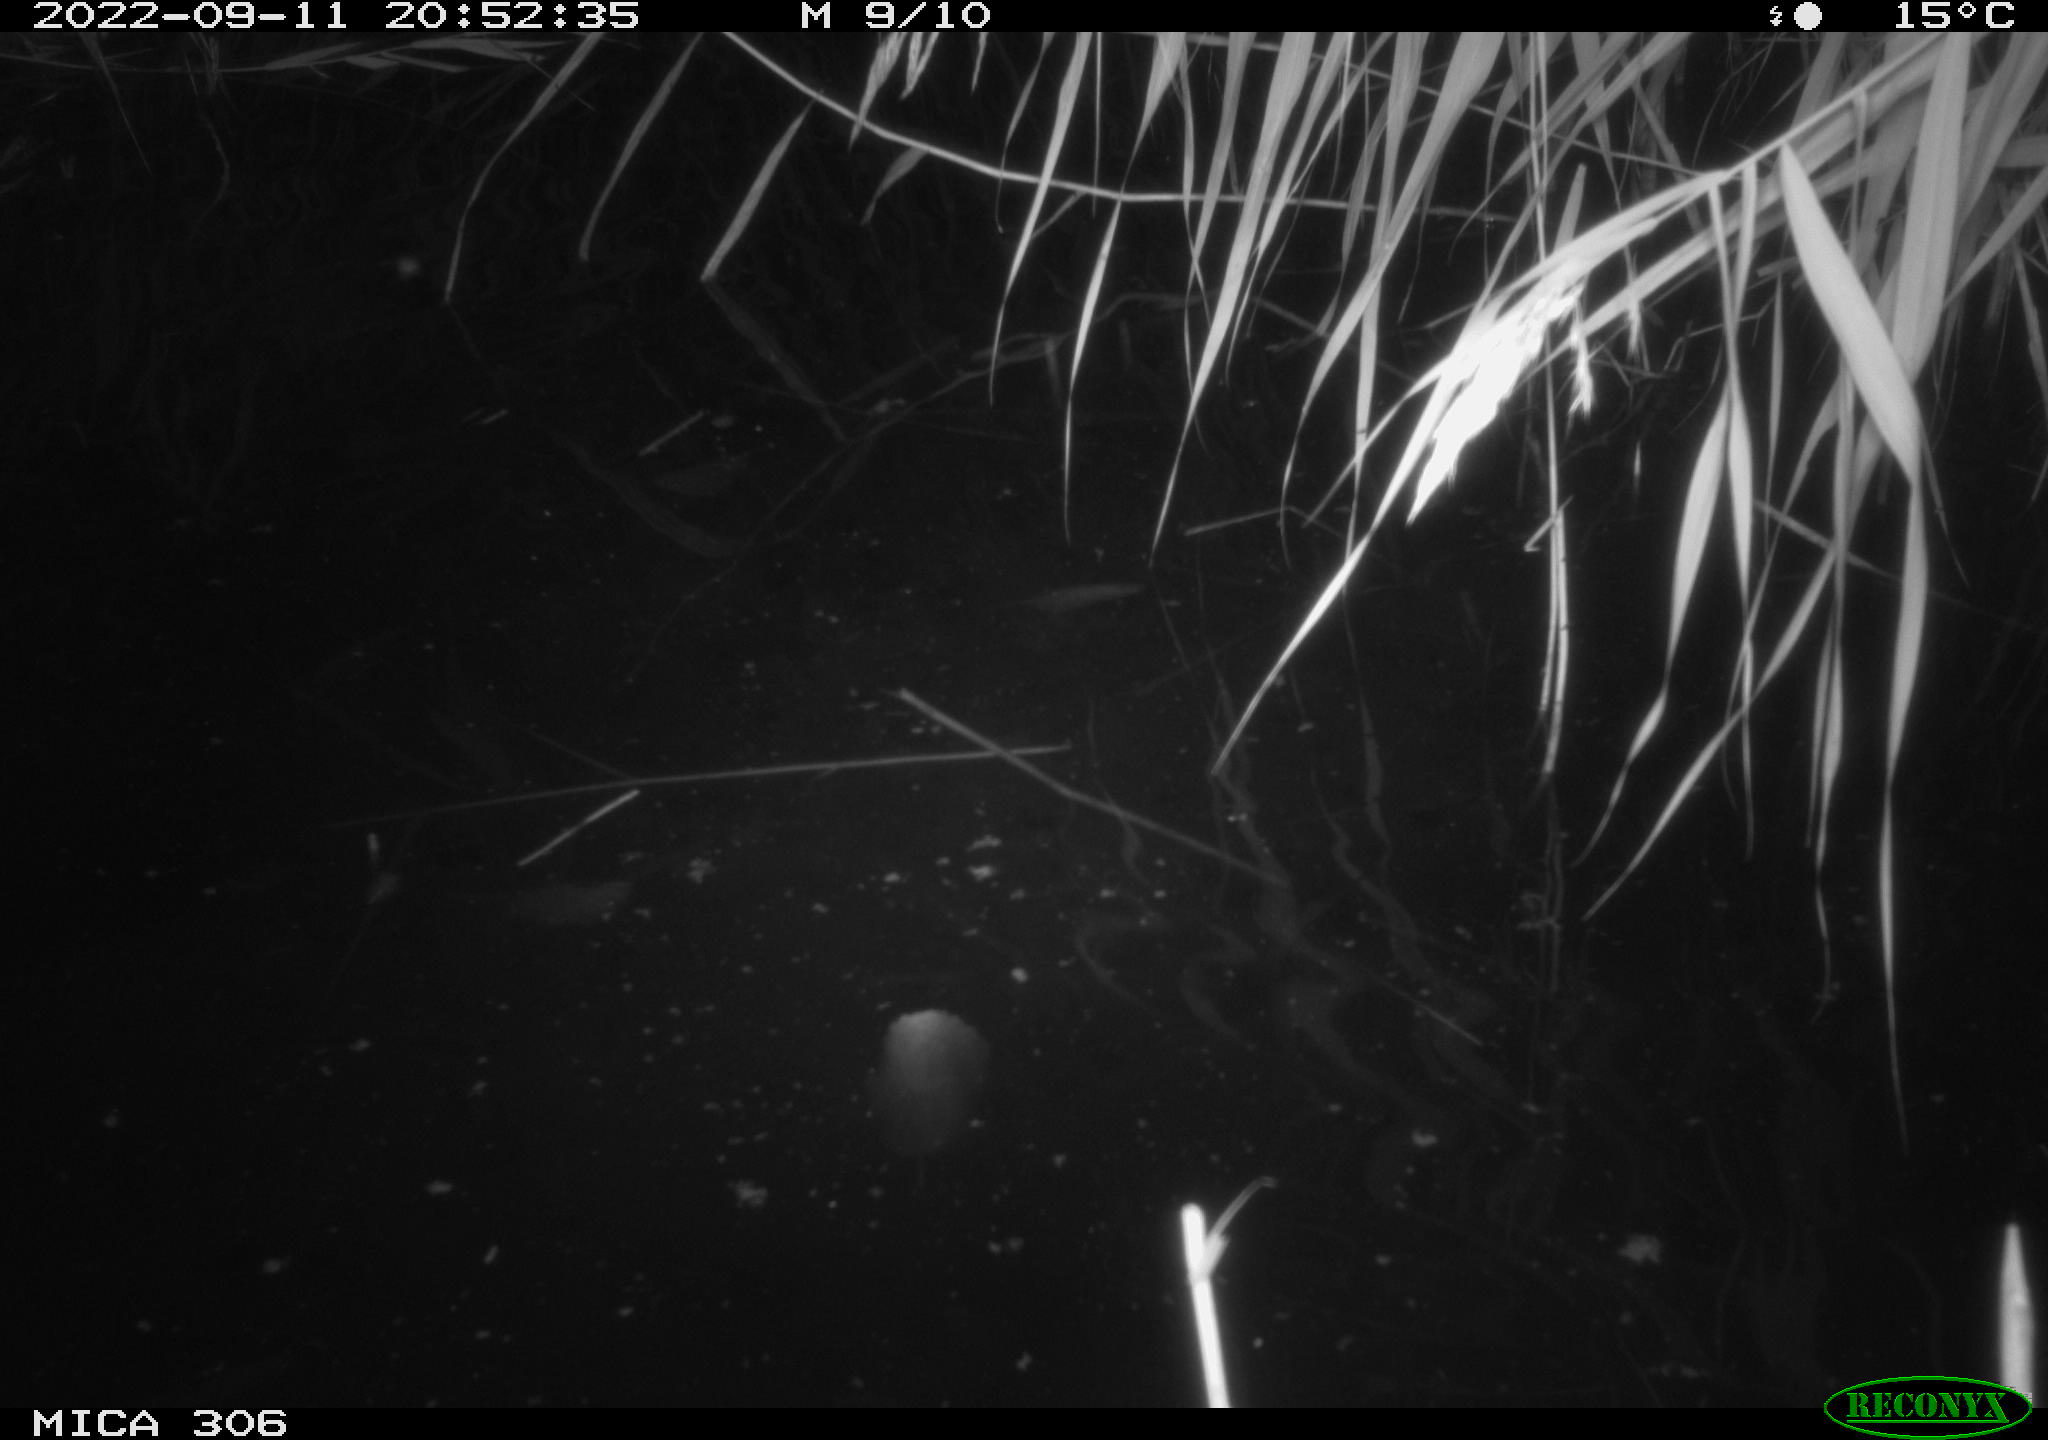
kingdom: Animalia
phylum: Chordata
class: Mammalia
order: Rodentia
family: Muridae
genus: Rattus
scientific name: Rattus norvegicus
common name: Brown rat
